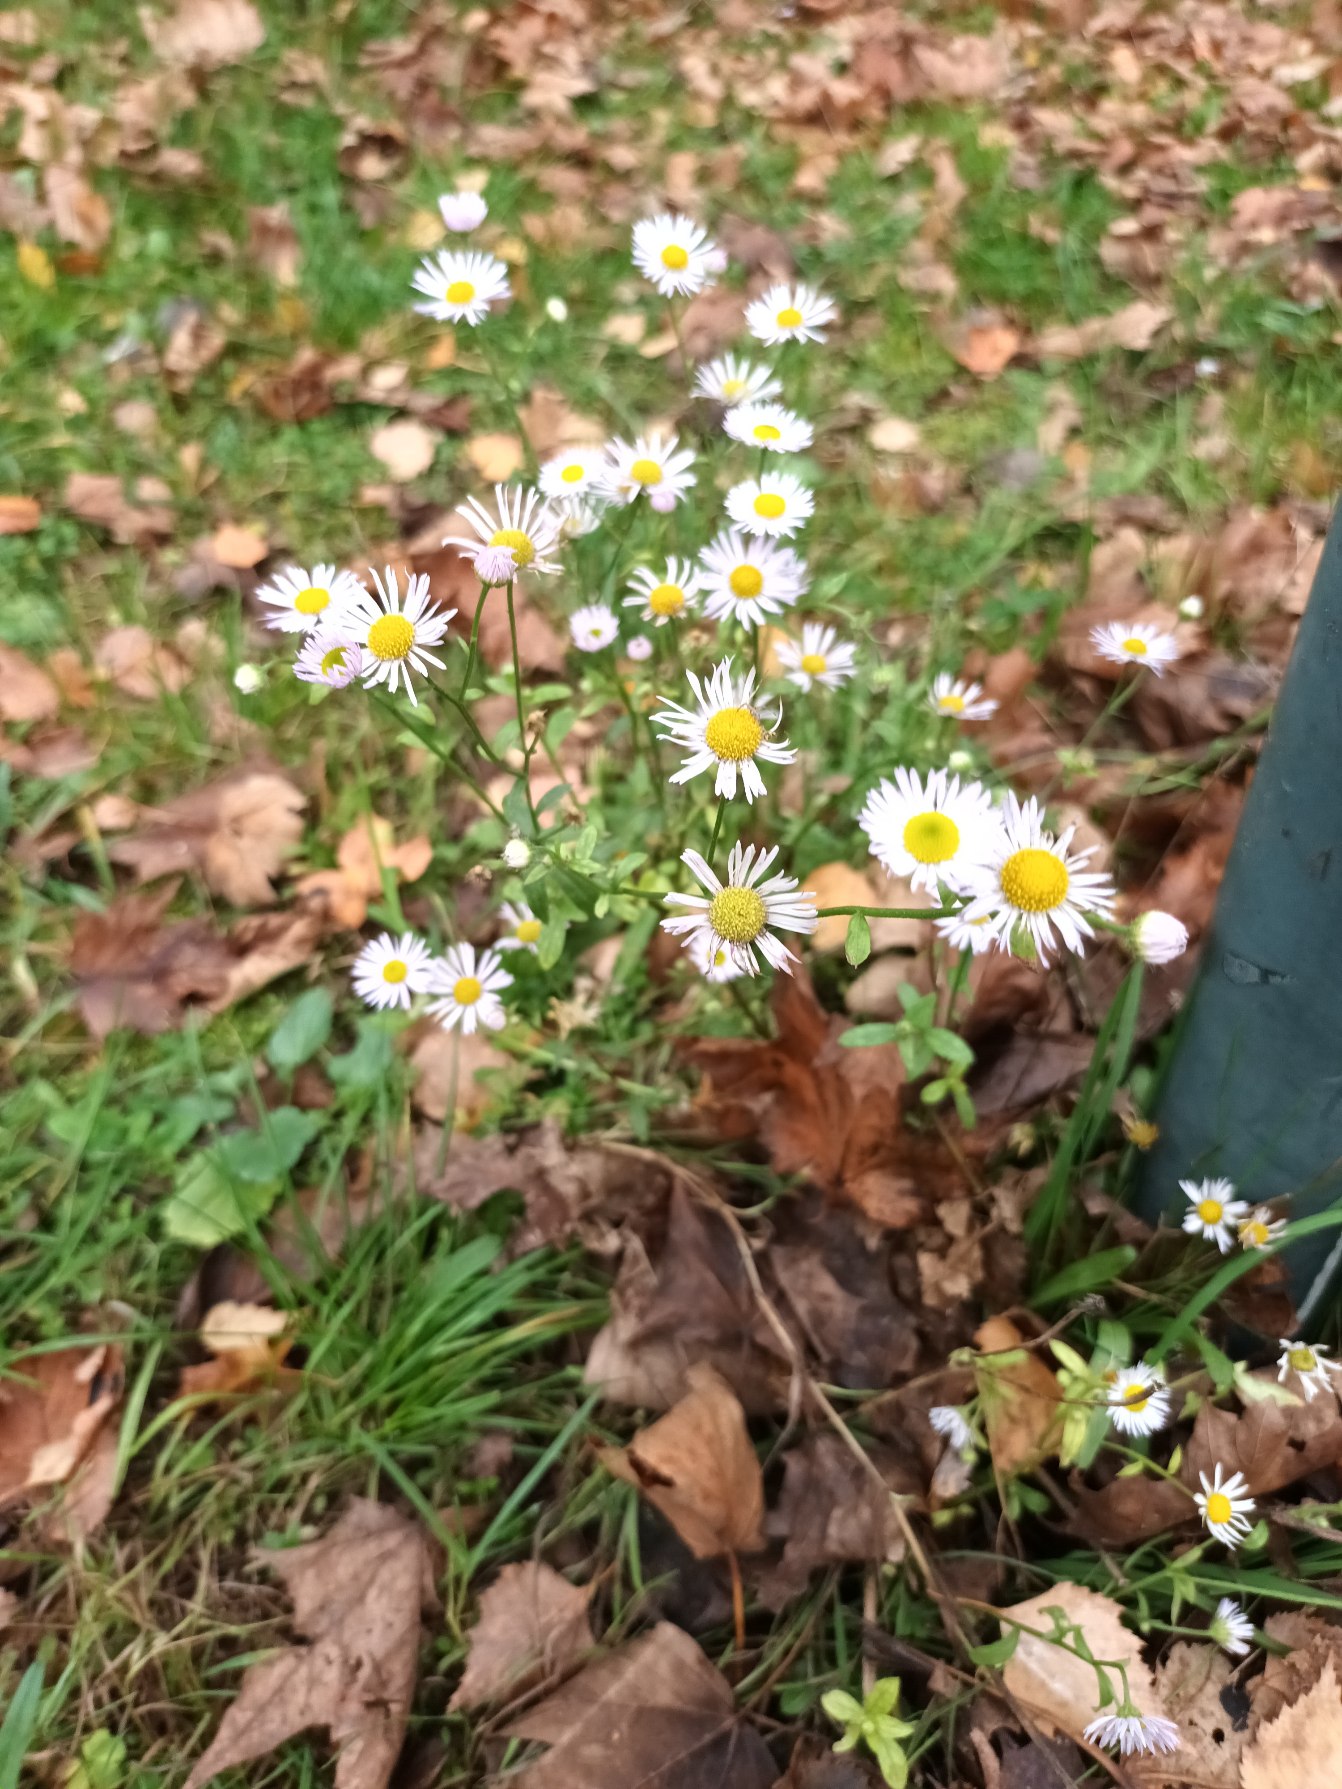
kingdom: Plantae
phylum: Tracheophyta
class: Magnoliopsida
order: Asterales
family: Asteraceae
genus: Erigeron
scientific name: Erigeron annuus
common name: Smalstråle
